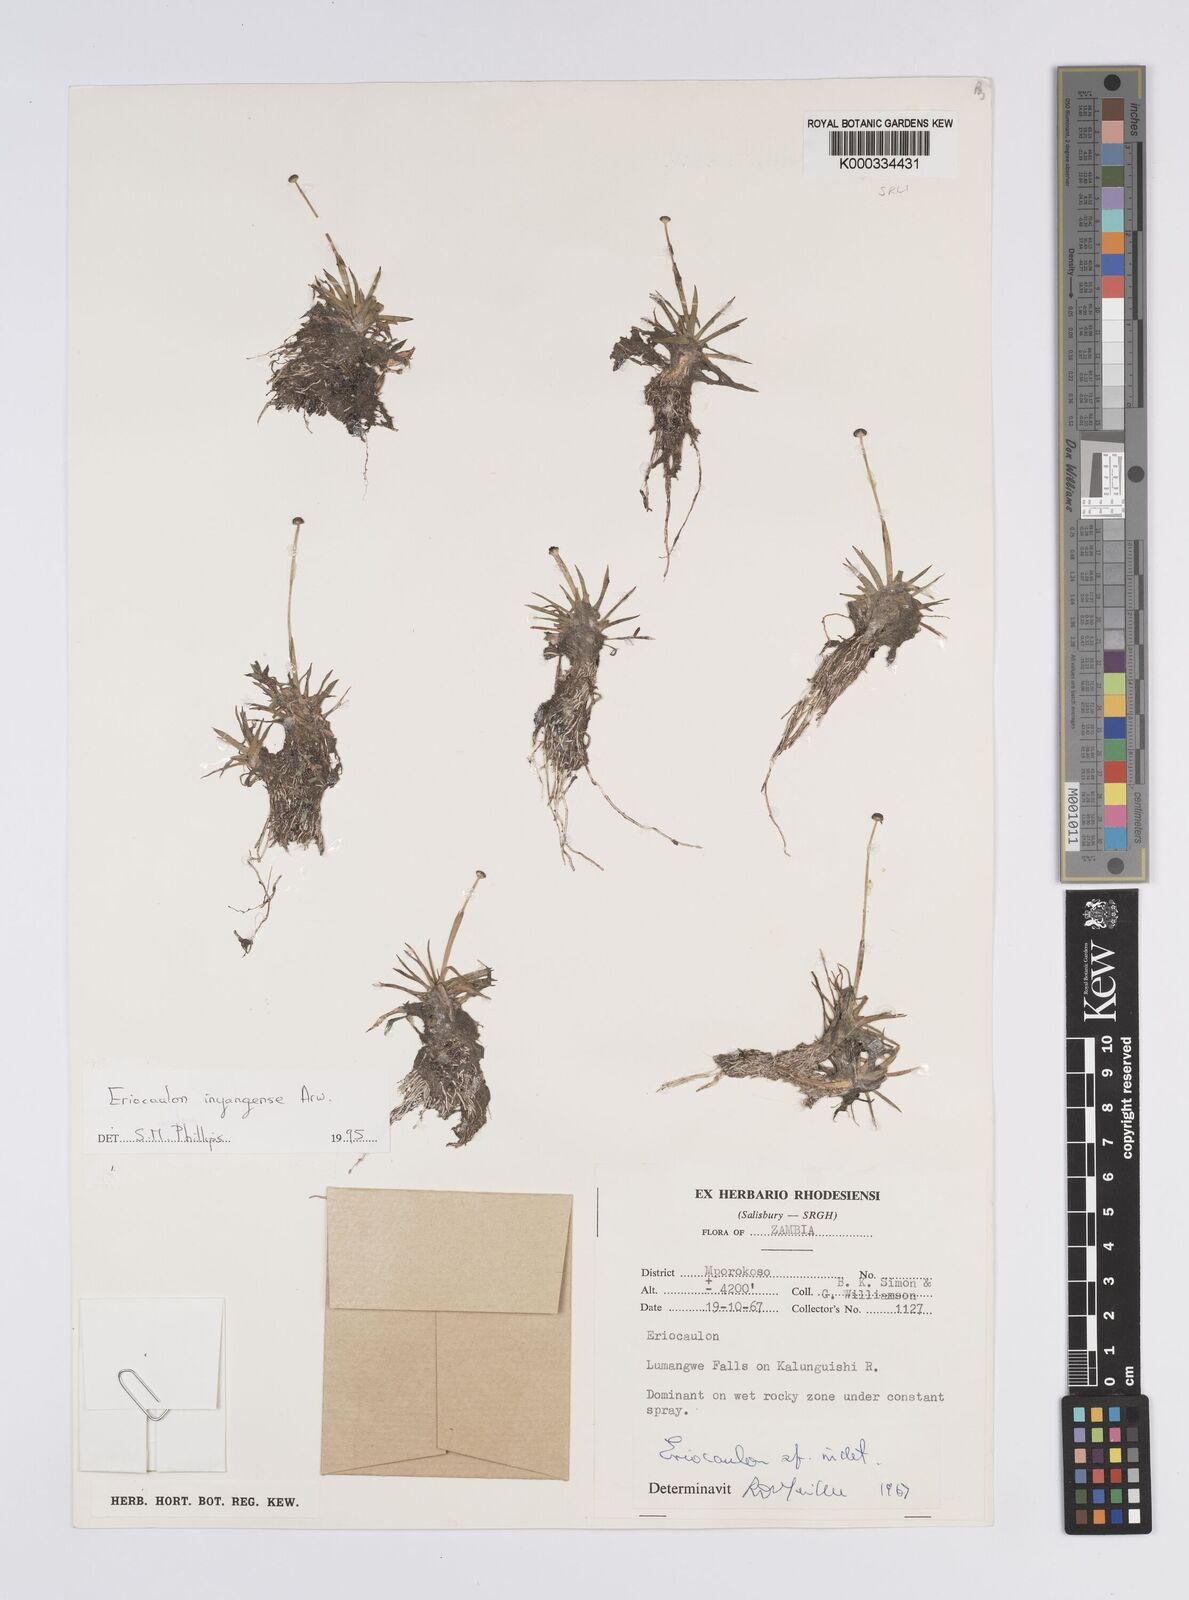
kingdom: Plantae
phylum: Tracheophyta
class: Liliopsida
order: Poales
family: Eriocaulaceae
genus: Eriocaulon
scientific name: Eriocaulon inyangense
